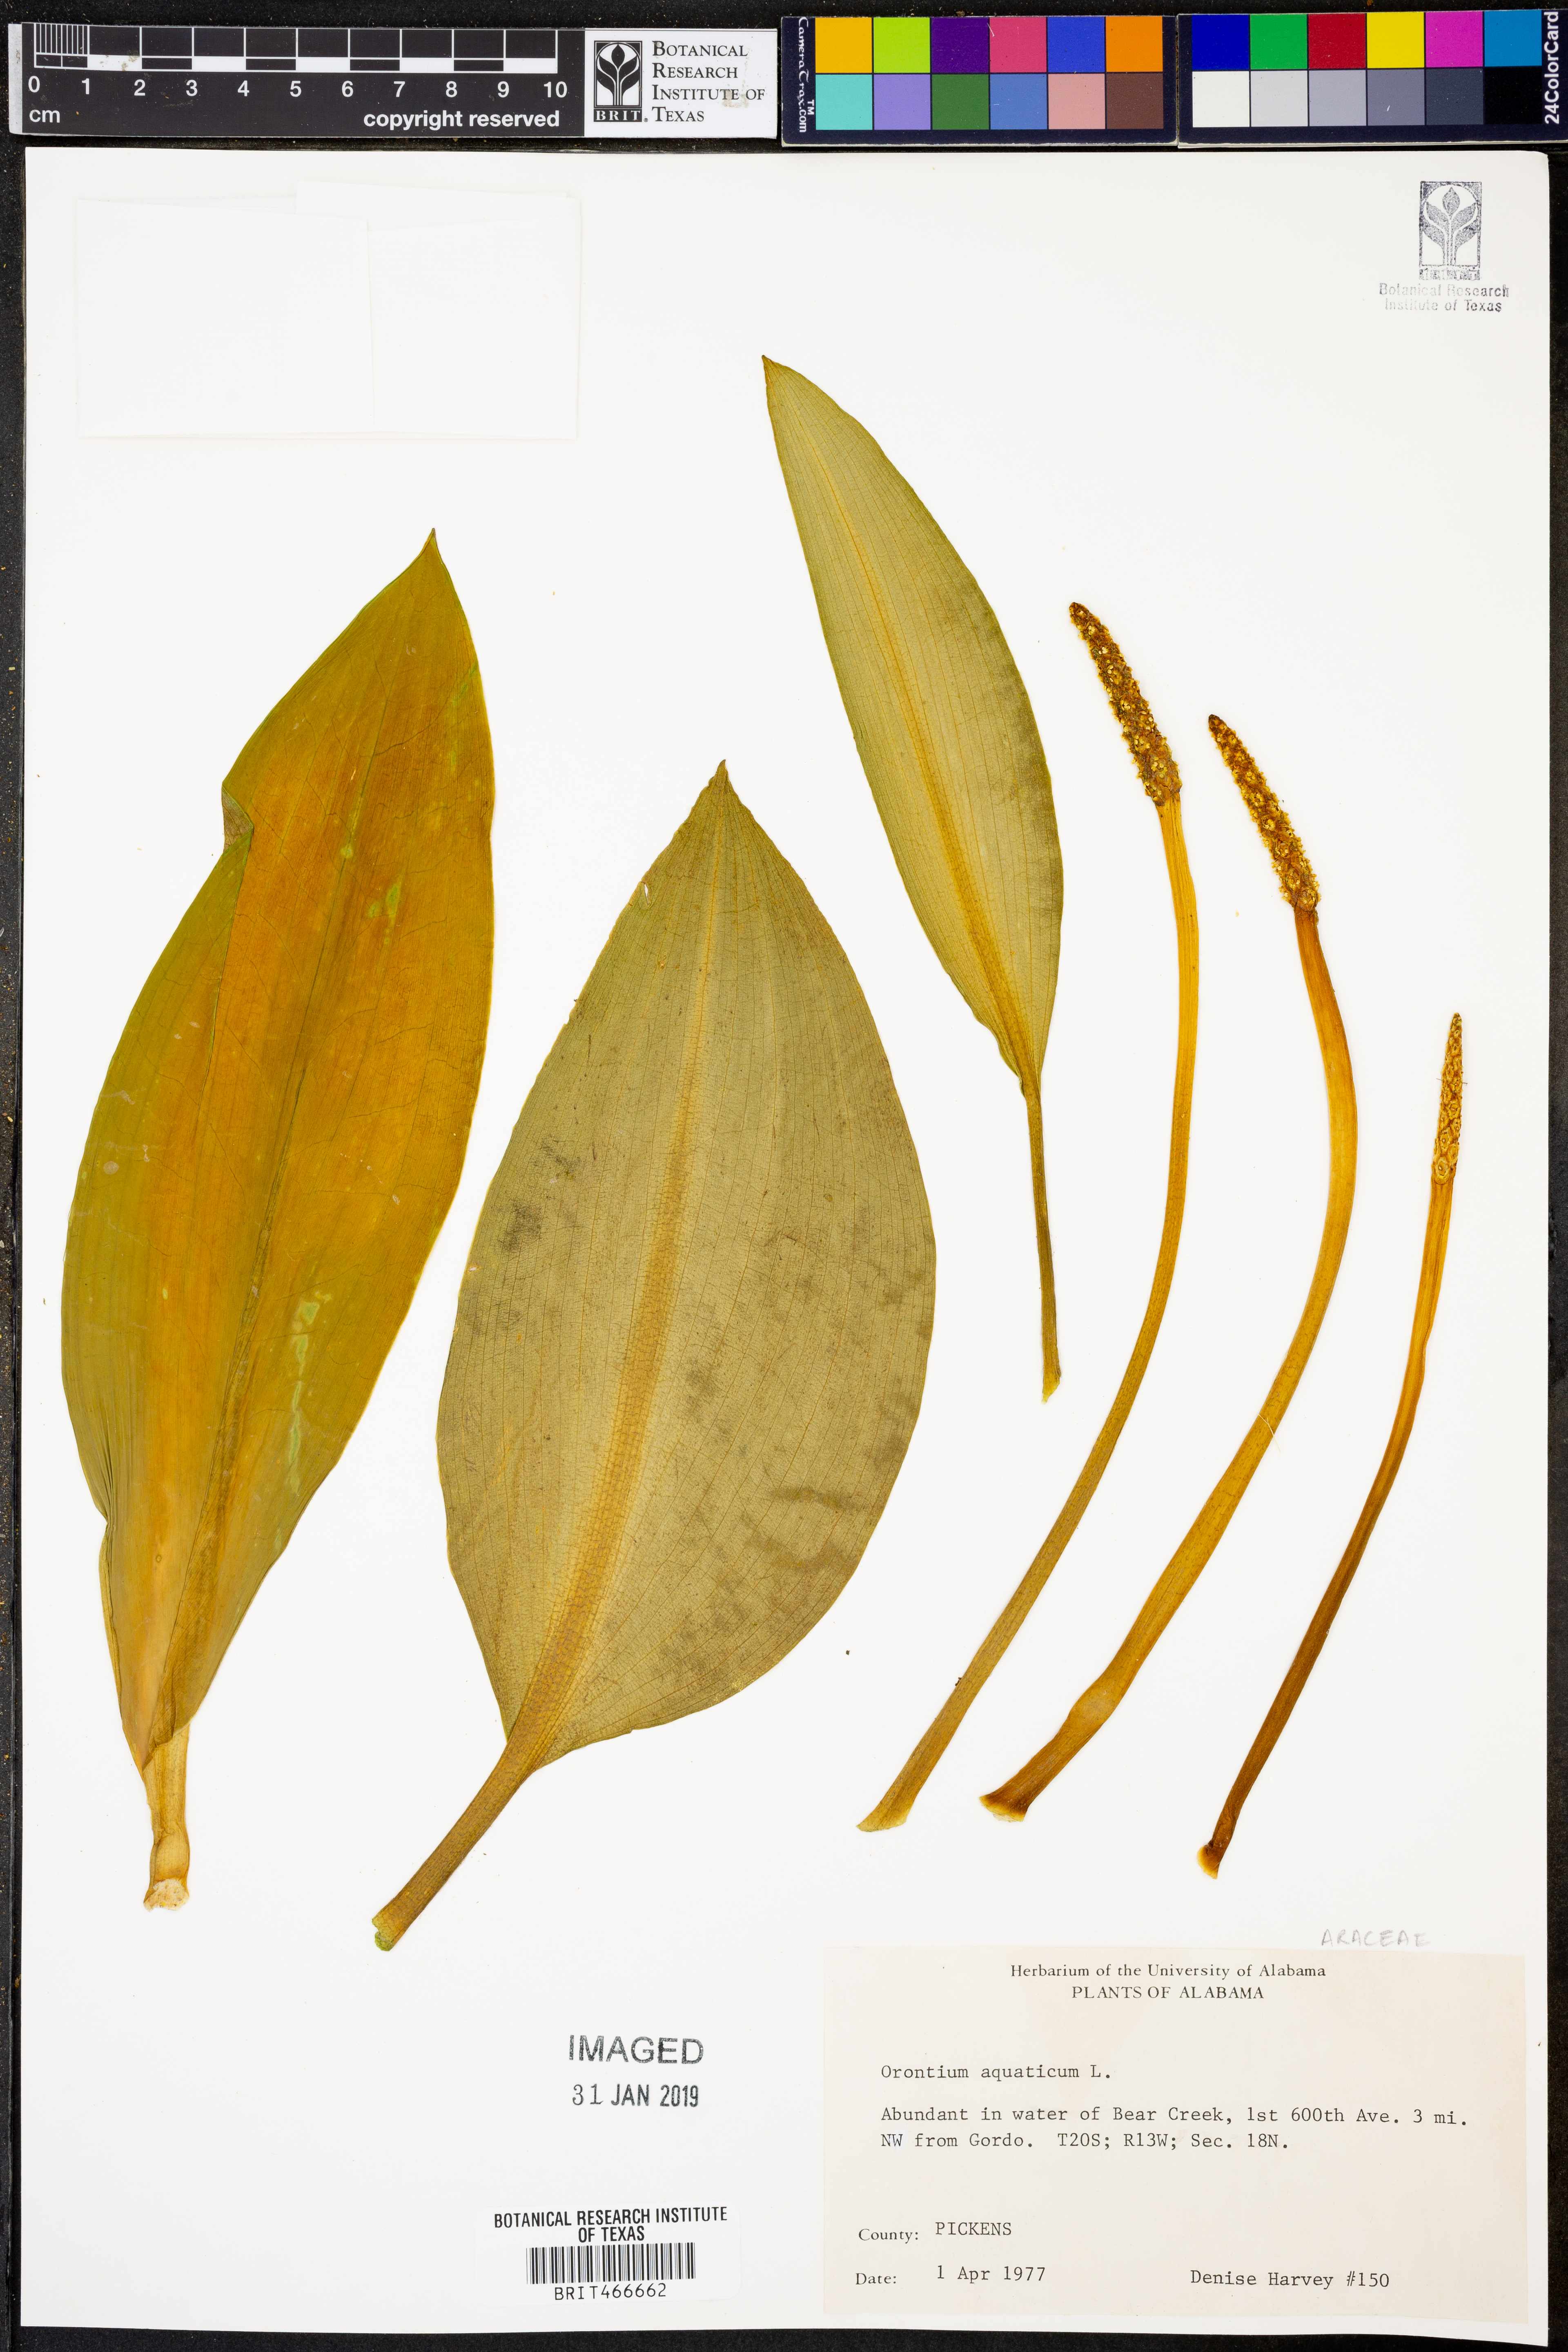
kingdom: Plantae
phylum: Tracheophyta
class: Liliopsida
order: Alismatales
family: Araceae
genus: Orontium
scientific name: Orontium aquaticum
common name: Golden-club
